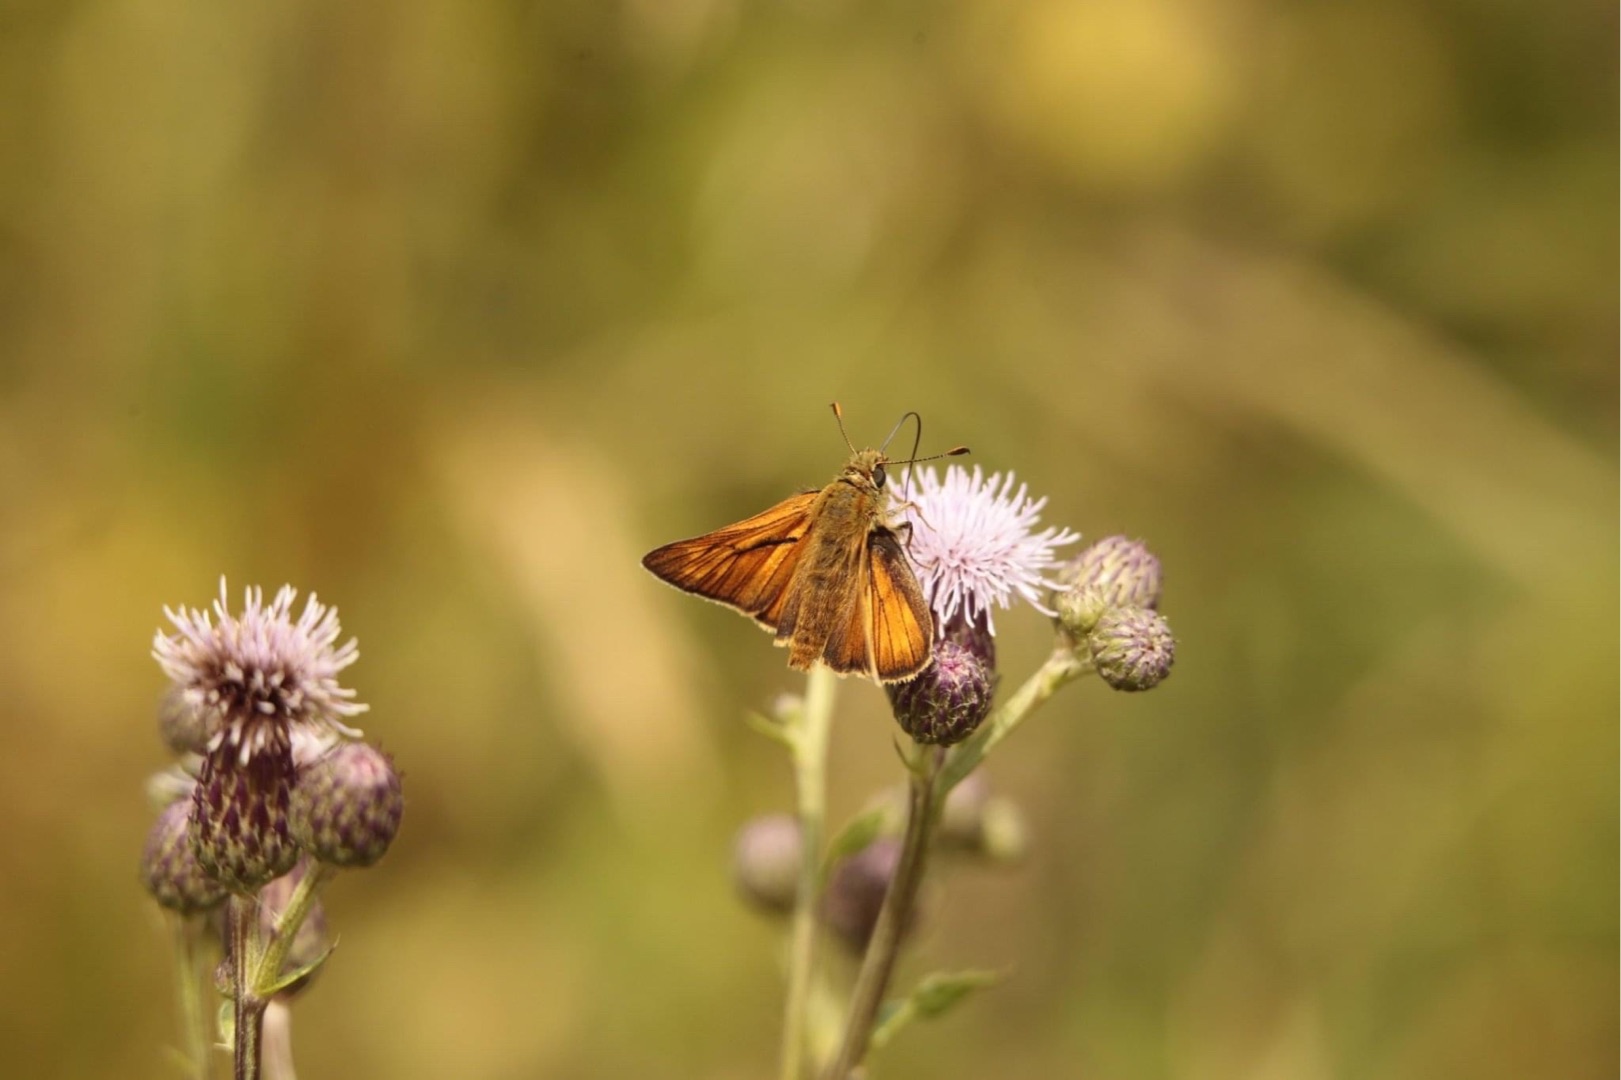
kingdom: Animalia
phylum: Arthropoda
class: Insecta
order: Lepidoptera
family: Hesperiidae
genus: Ochlodes
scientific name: Ochlodes venata
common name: Stor bredpande
